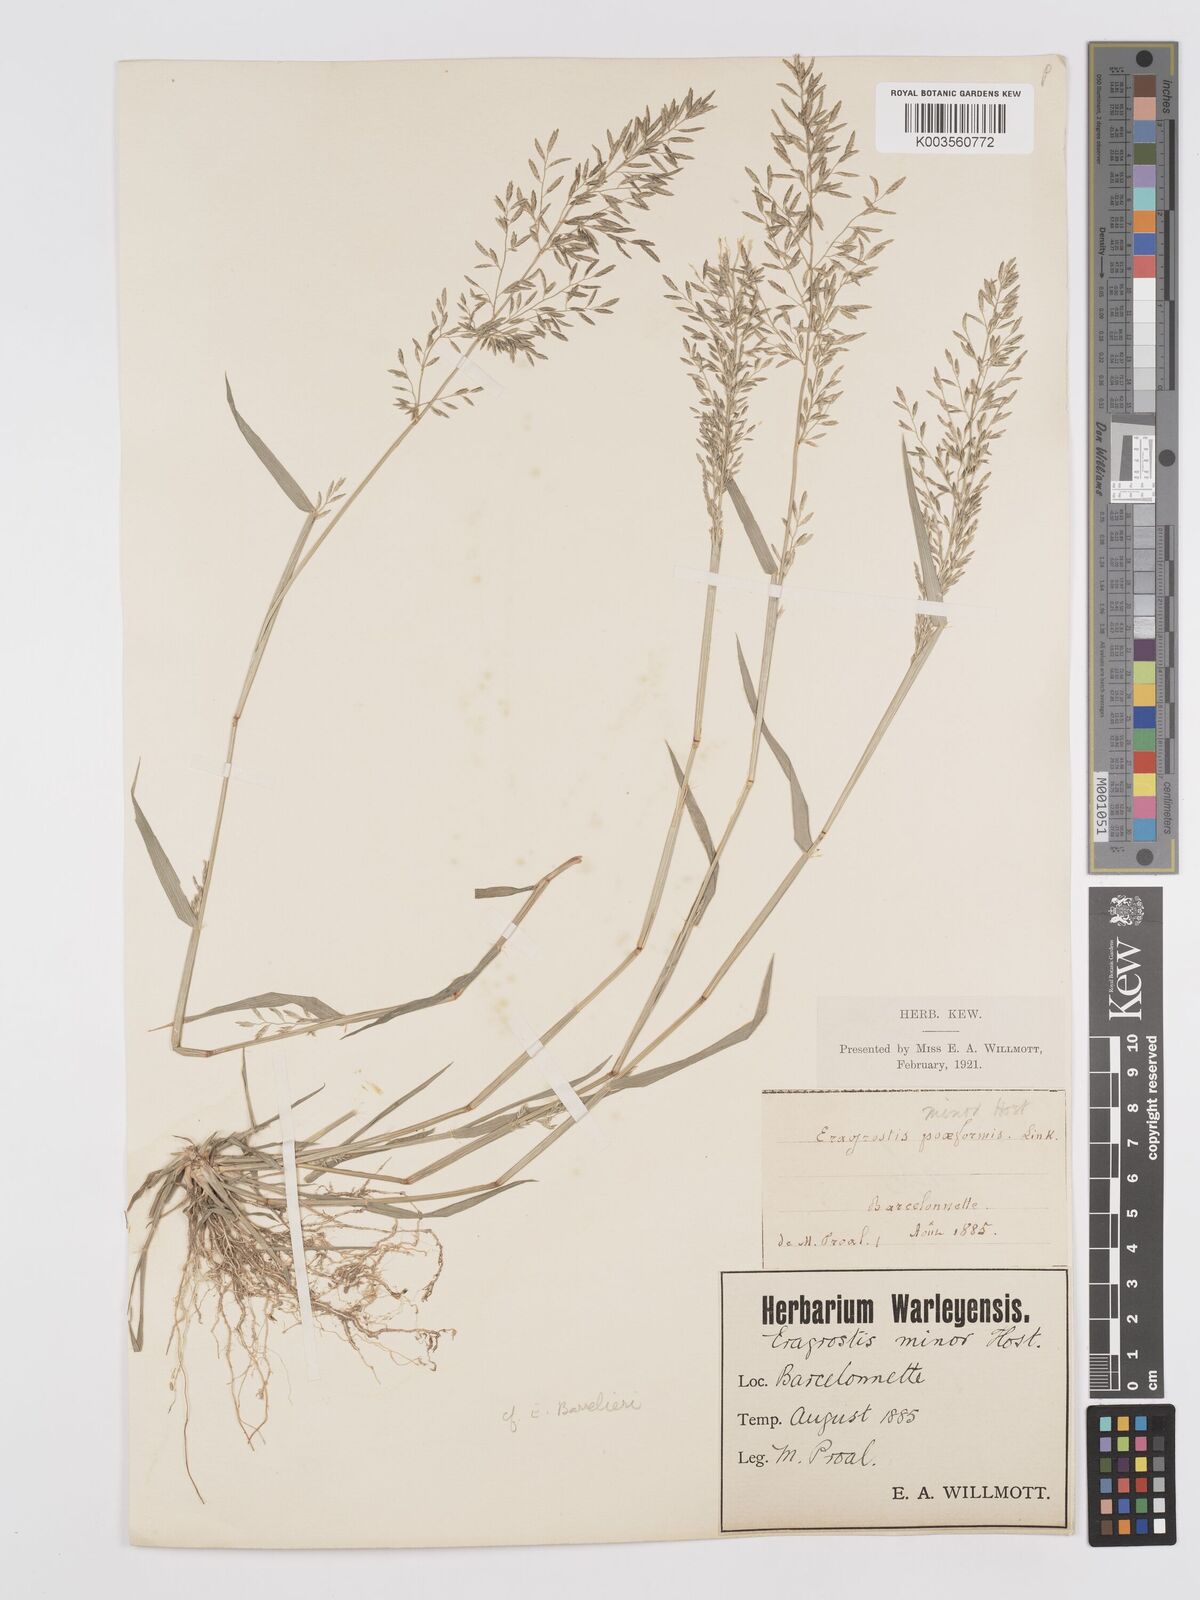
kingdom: Plantae
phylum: Tracheophyta
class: Liliopsida
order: Poales
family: Poaceae
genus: Eragrostis
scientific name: Eragrostis barrelieri
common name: Mediterranean lovegrass
